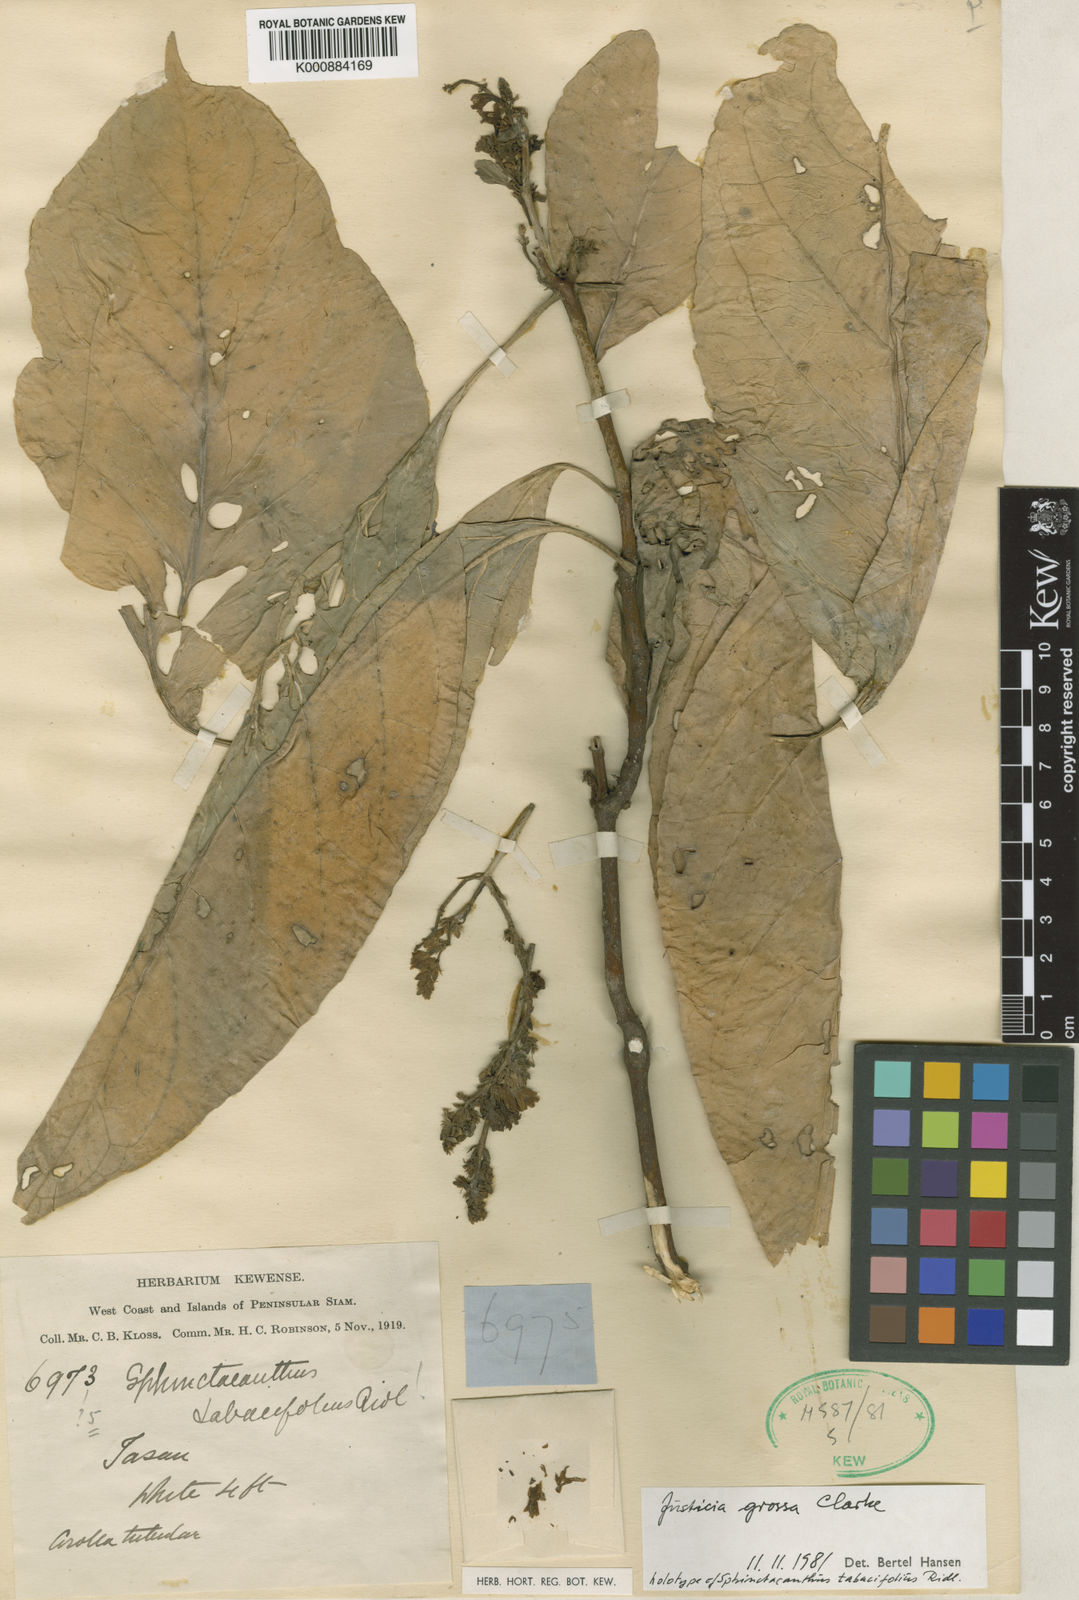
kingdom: Plantae
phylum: Tracheophyta
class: Magnoliopsida
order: Lamiales
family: Acanthaceae
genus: Ecbolium
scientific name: Ecbolium grossum
